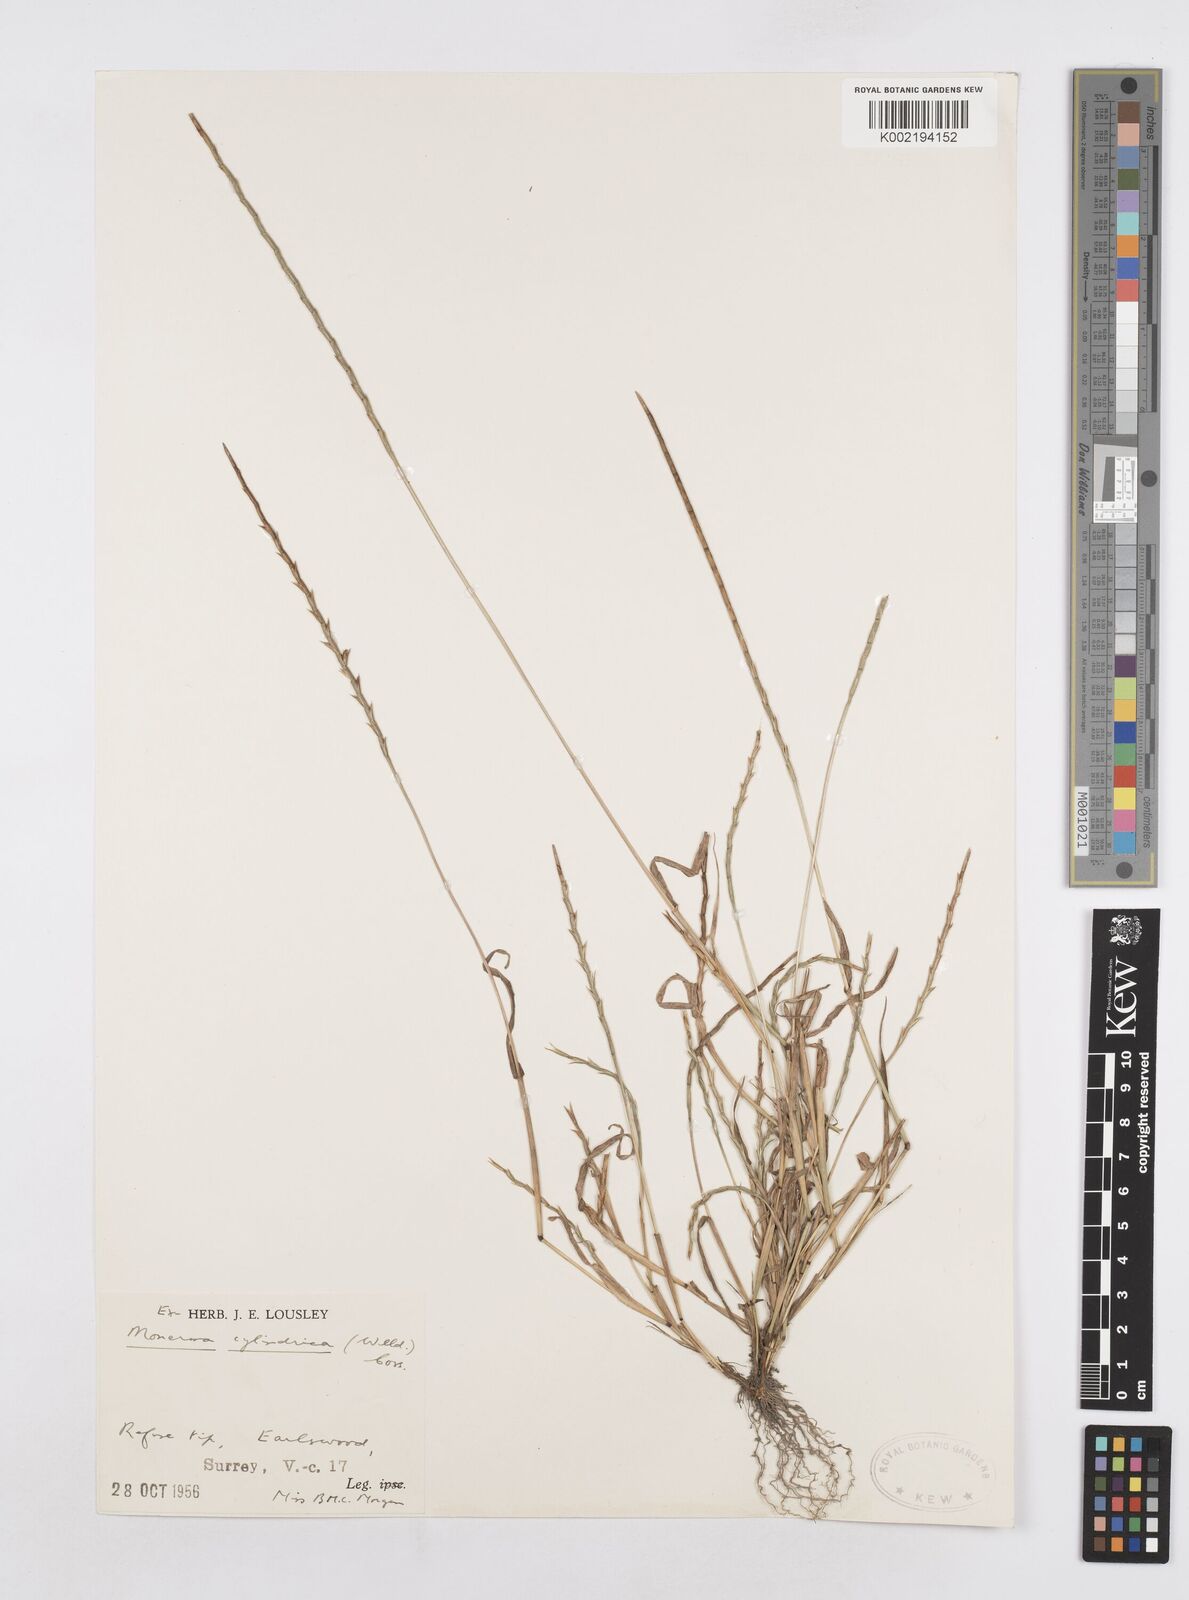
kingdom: Plantae
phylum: Tracheophyta
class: Liliopsida
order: Poales
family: Poaceae
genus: Parapholis
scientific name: Parapholis cylindrica
